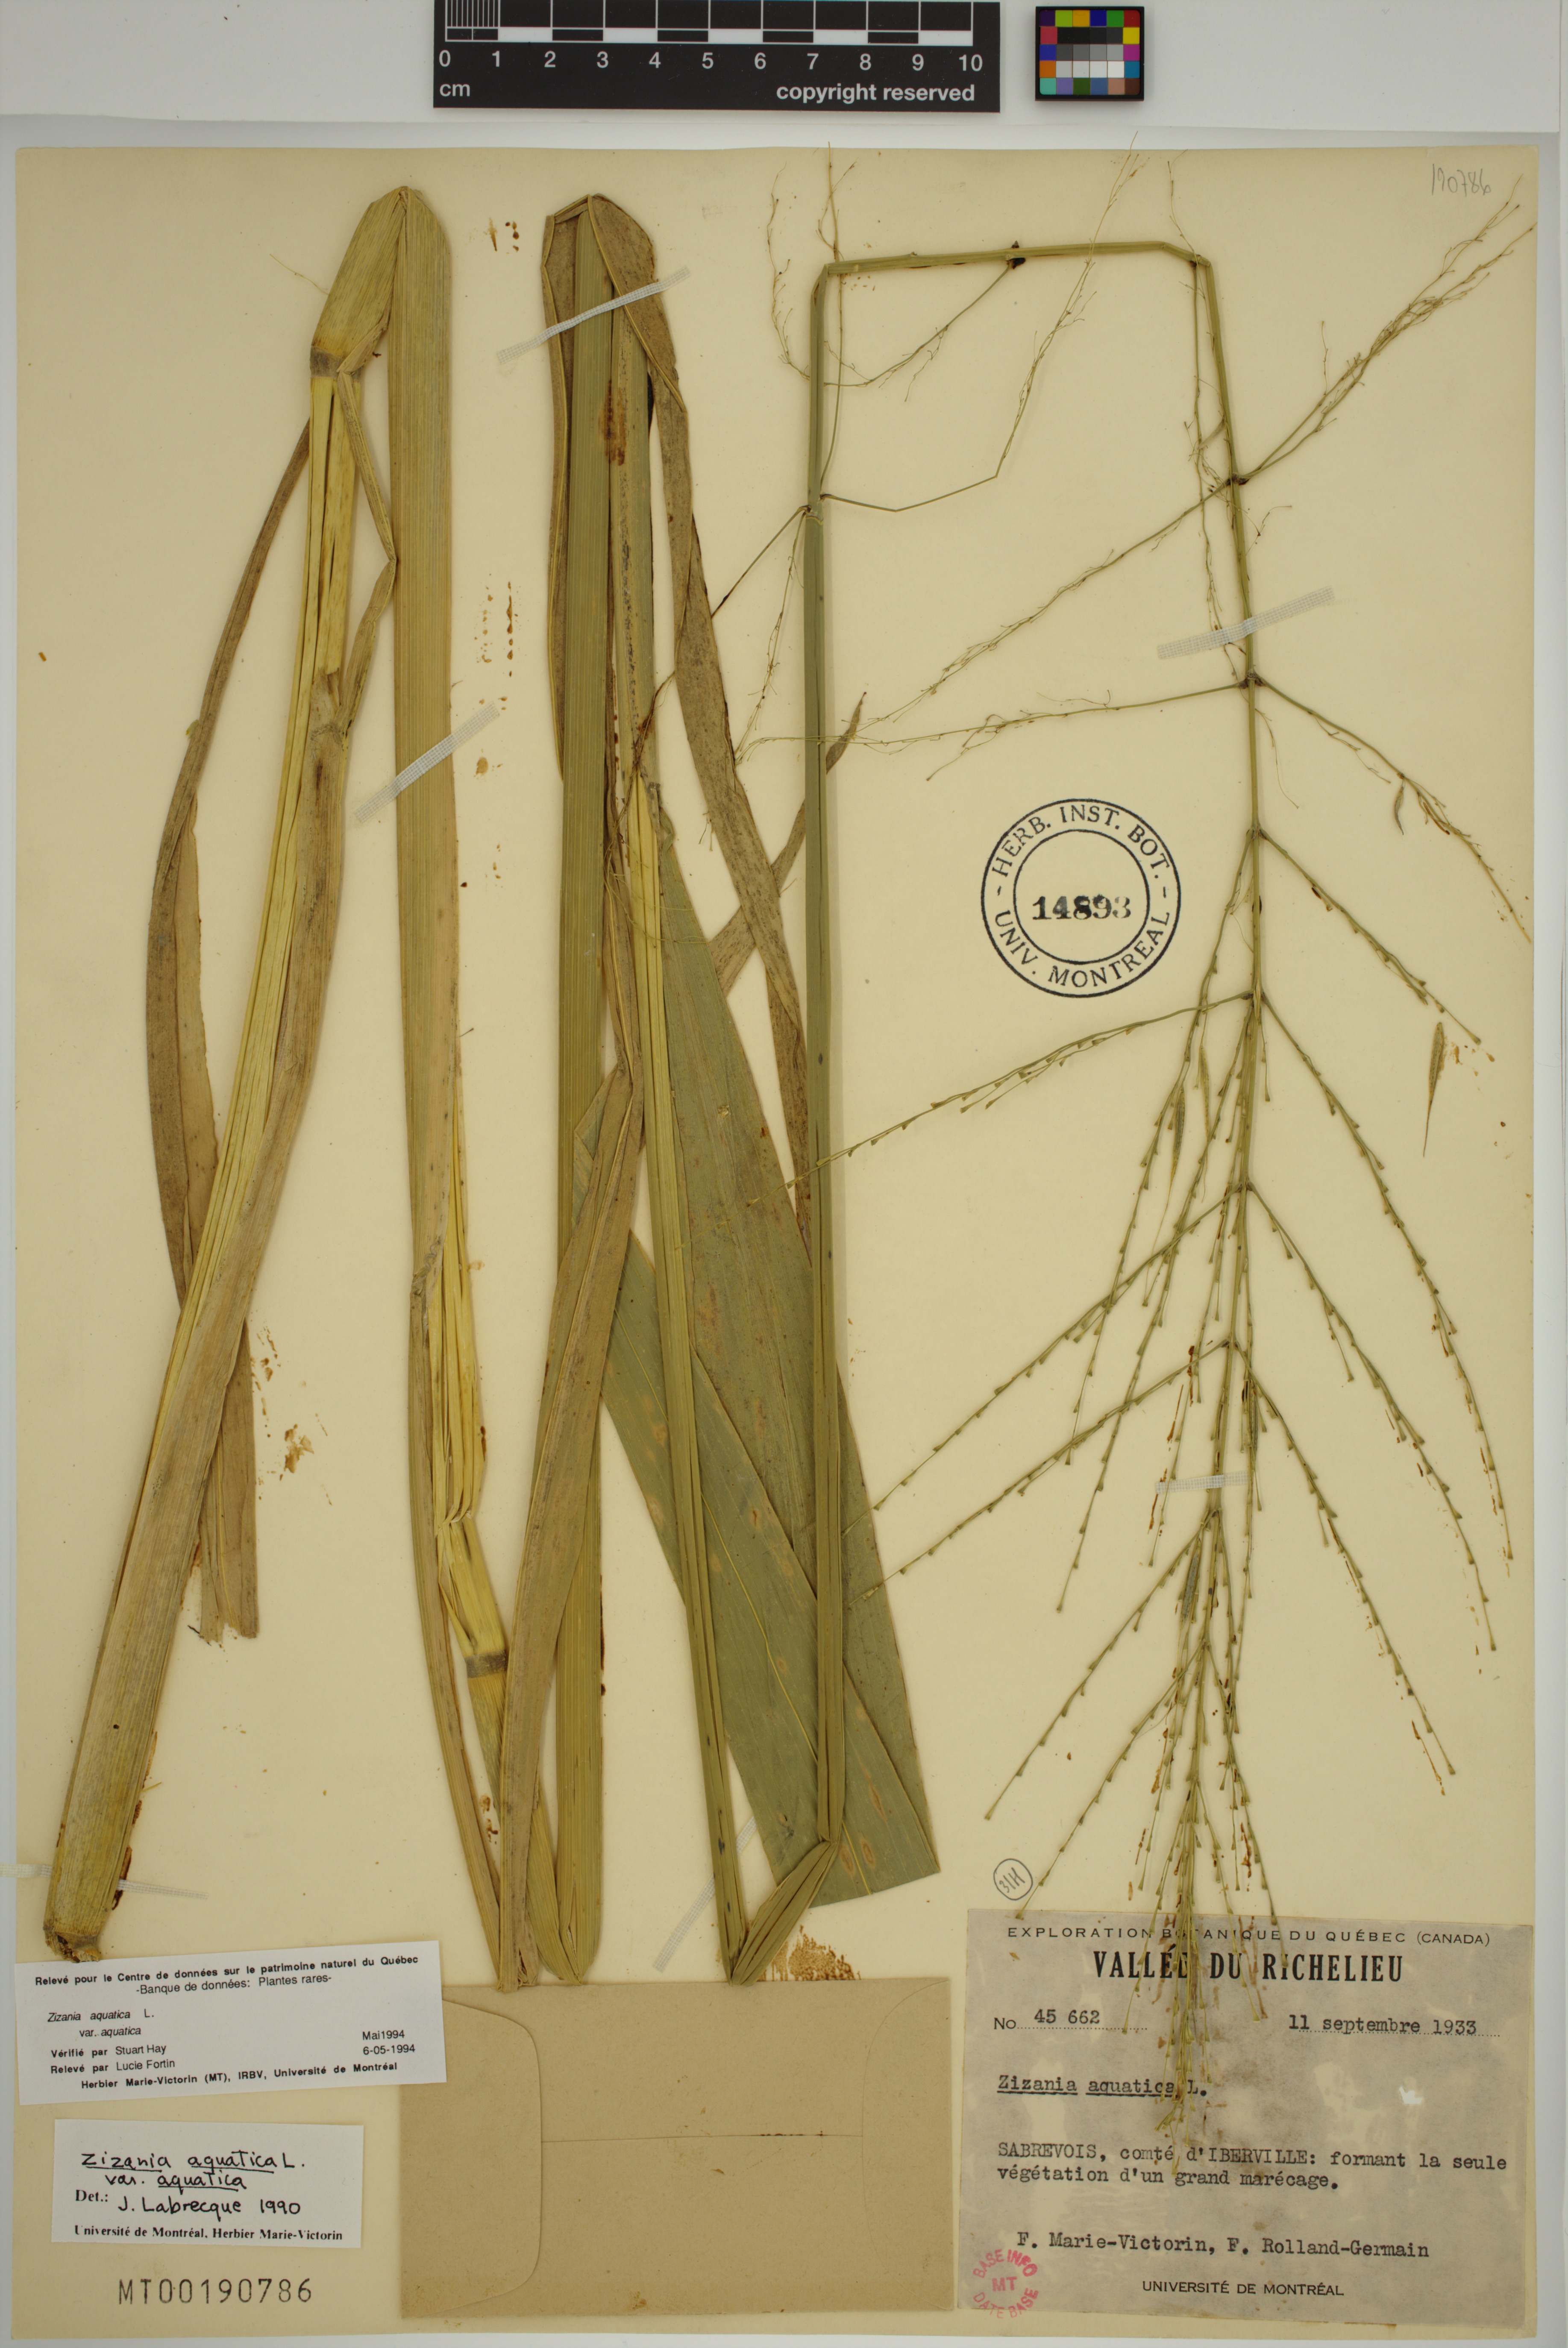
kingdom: Plantae
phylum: Tracheophyta
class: Liliopsida
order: Poales
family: Poaceae
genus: Zizania
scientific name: Zizania aquatica
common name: Annual wildrice
